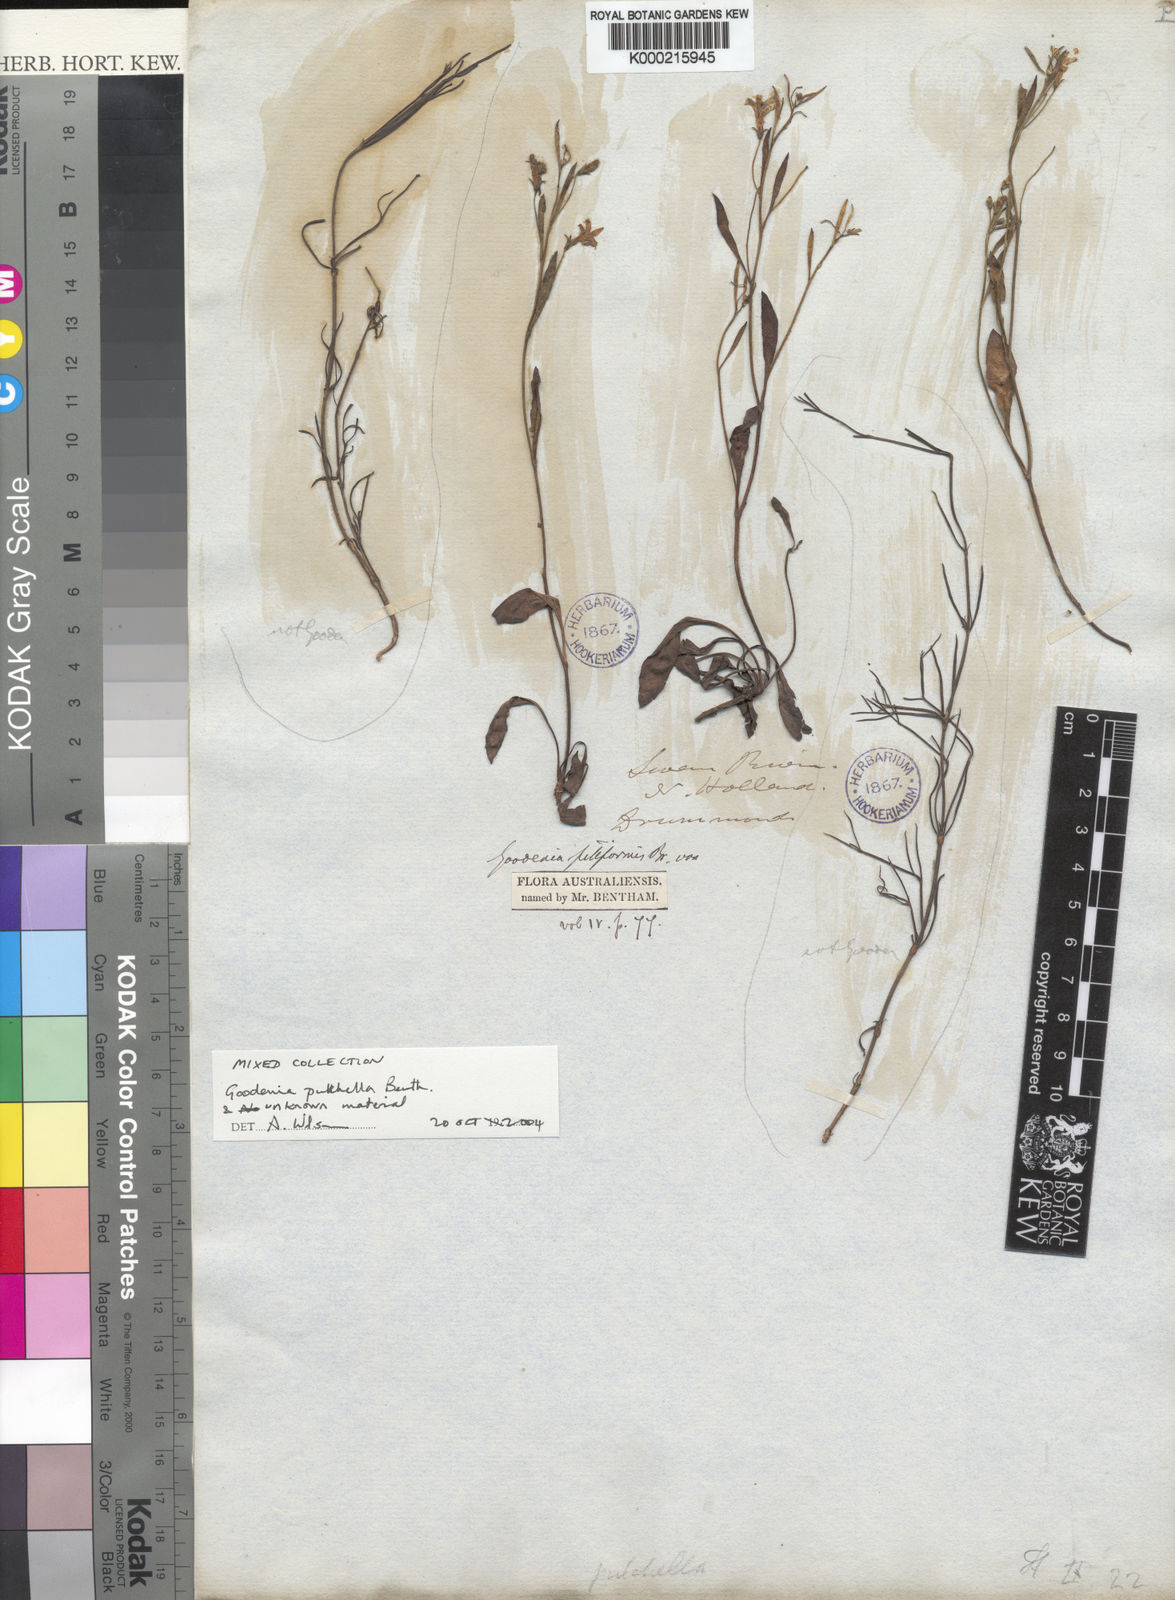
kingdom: Plantae
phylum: Tracheophyta
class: Magnoliopsida
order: Asterales
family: Goodeniaceae
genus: Goodenia
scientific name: Goodenia pulchella
